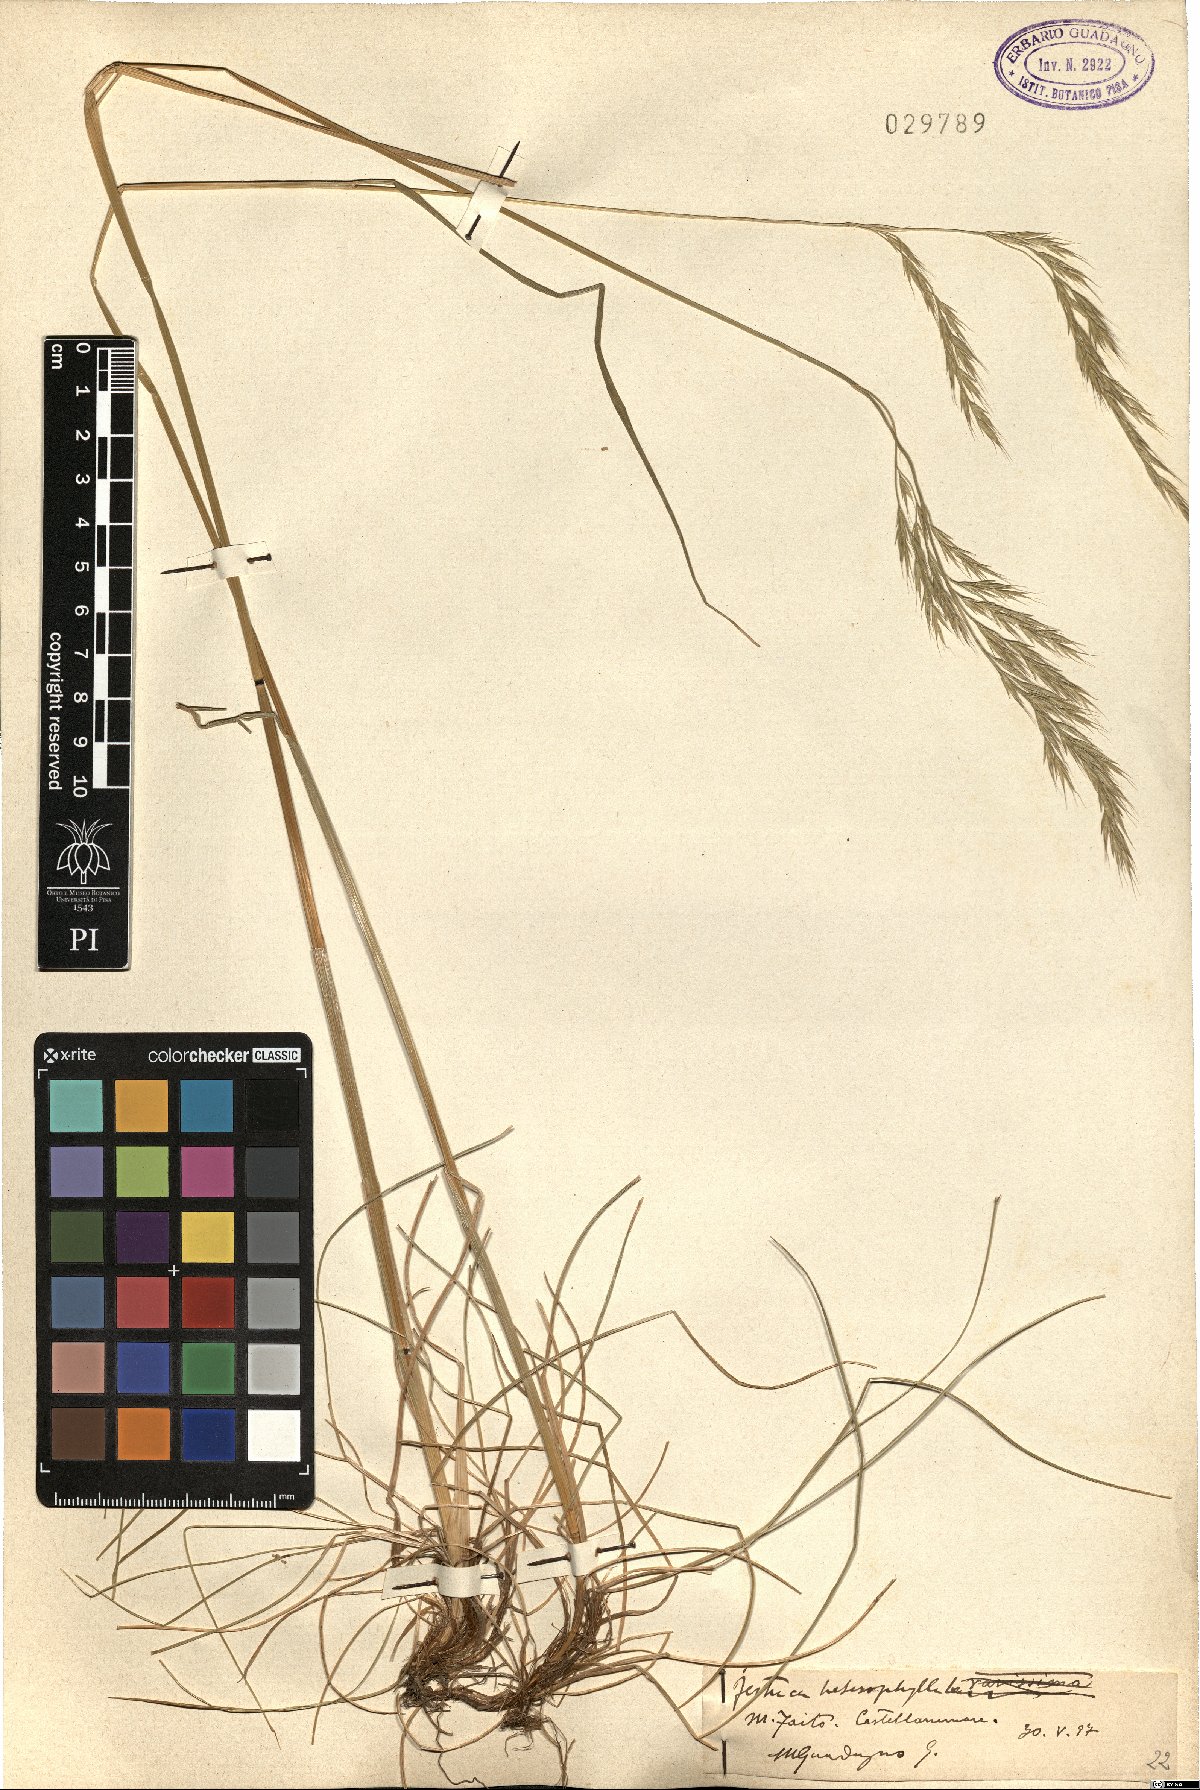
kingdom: Plantae
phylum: Tracheophyta
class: Liliopsida
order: Poales
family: Poaceae
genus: Festuca
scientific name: Festuca heterophylla
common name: Various-leaved fescue
